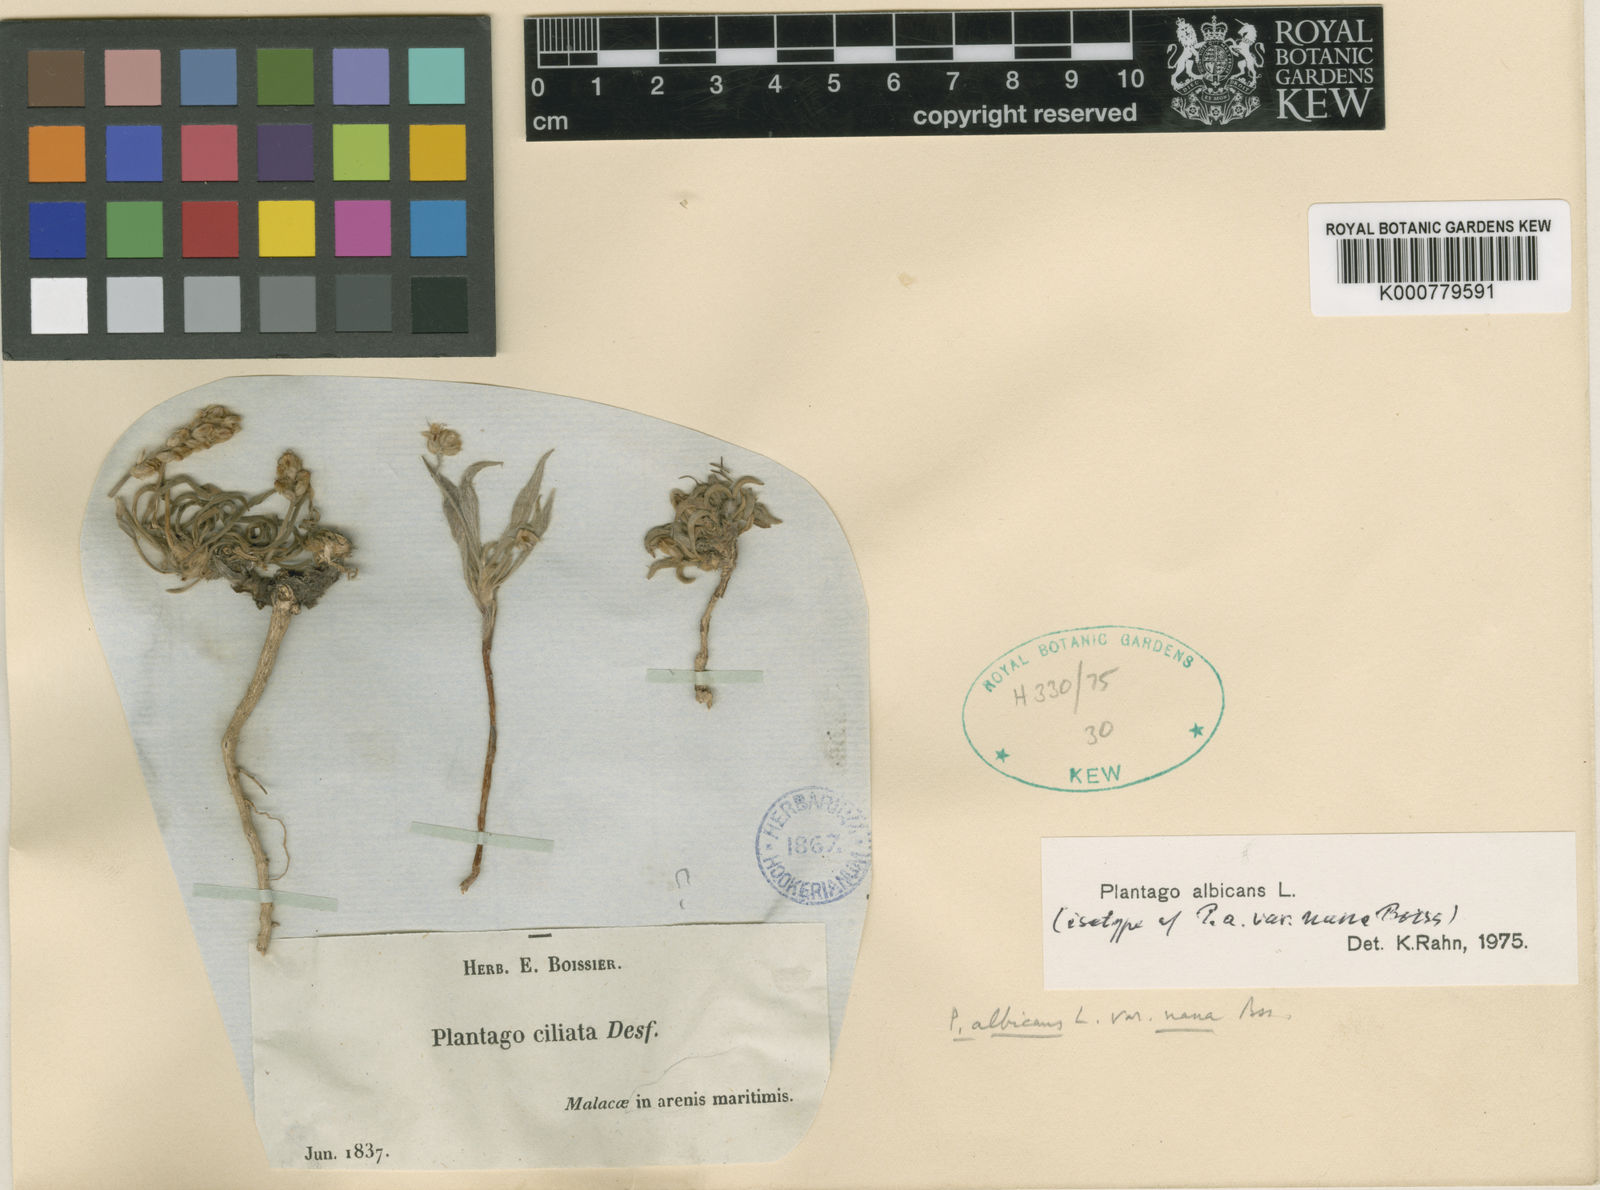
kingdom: Plantae
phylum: Tracheophyta
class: Magnoliopsida
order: Lamiales
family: Plantaginaceae
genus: Plantago
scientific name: Plantago albicans
